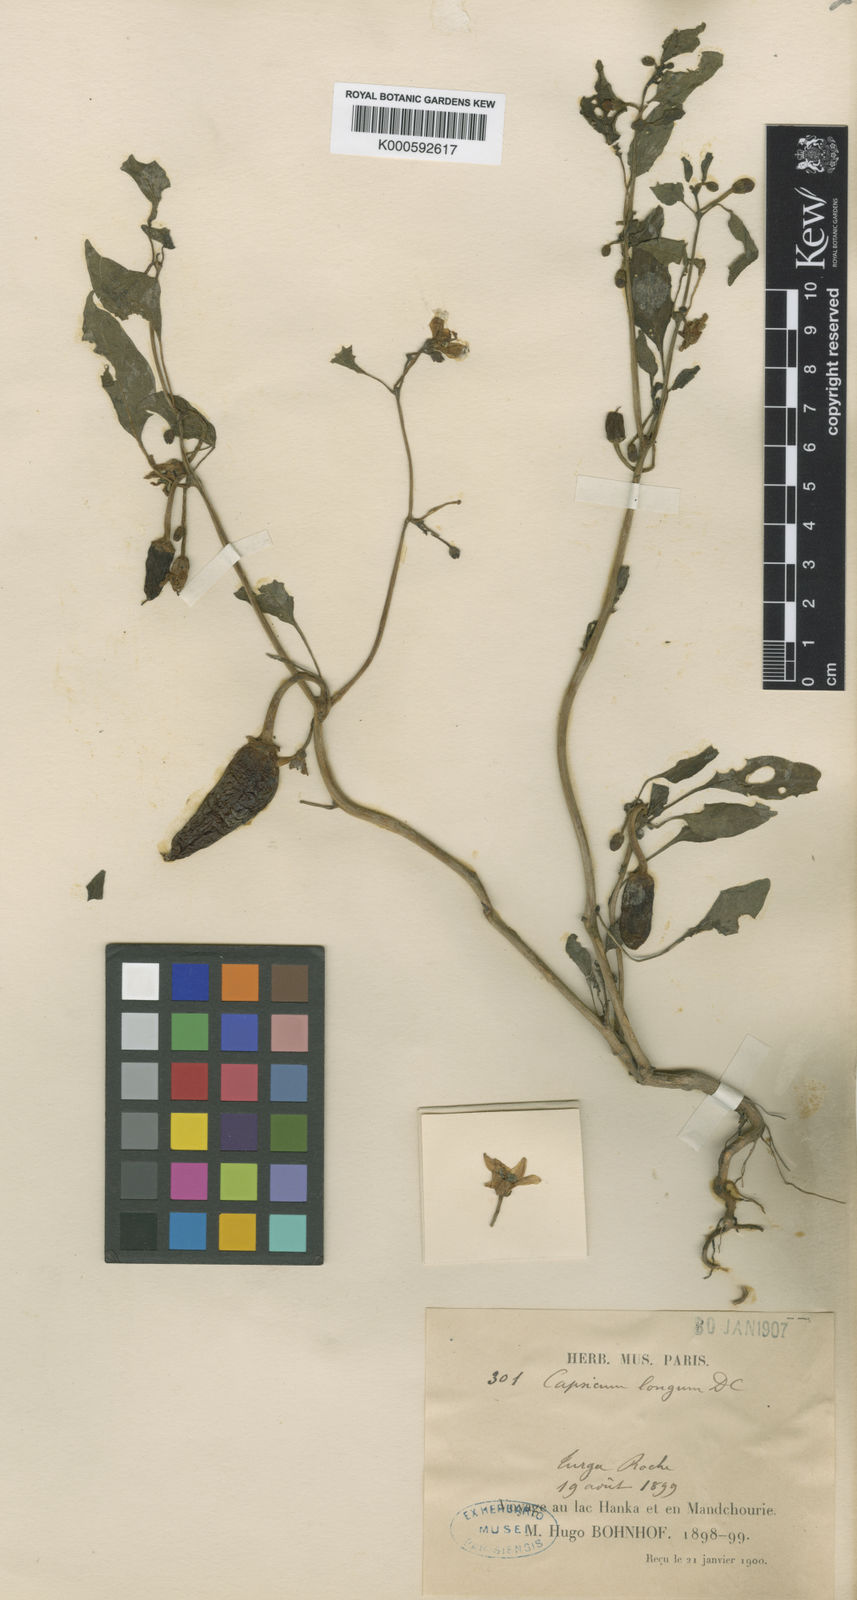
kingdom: Plantae
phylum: Tracheophyta
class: Magnoliopsida
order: Solanales
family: Solanaceae
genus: Capsicum
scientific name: Capsicum annuum
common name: Sweet pepper
